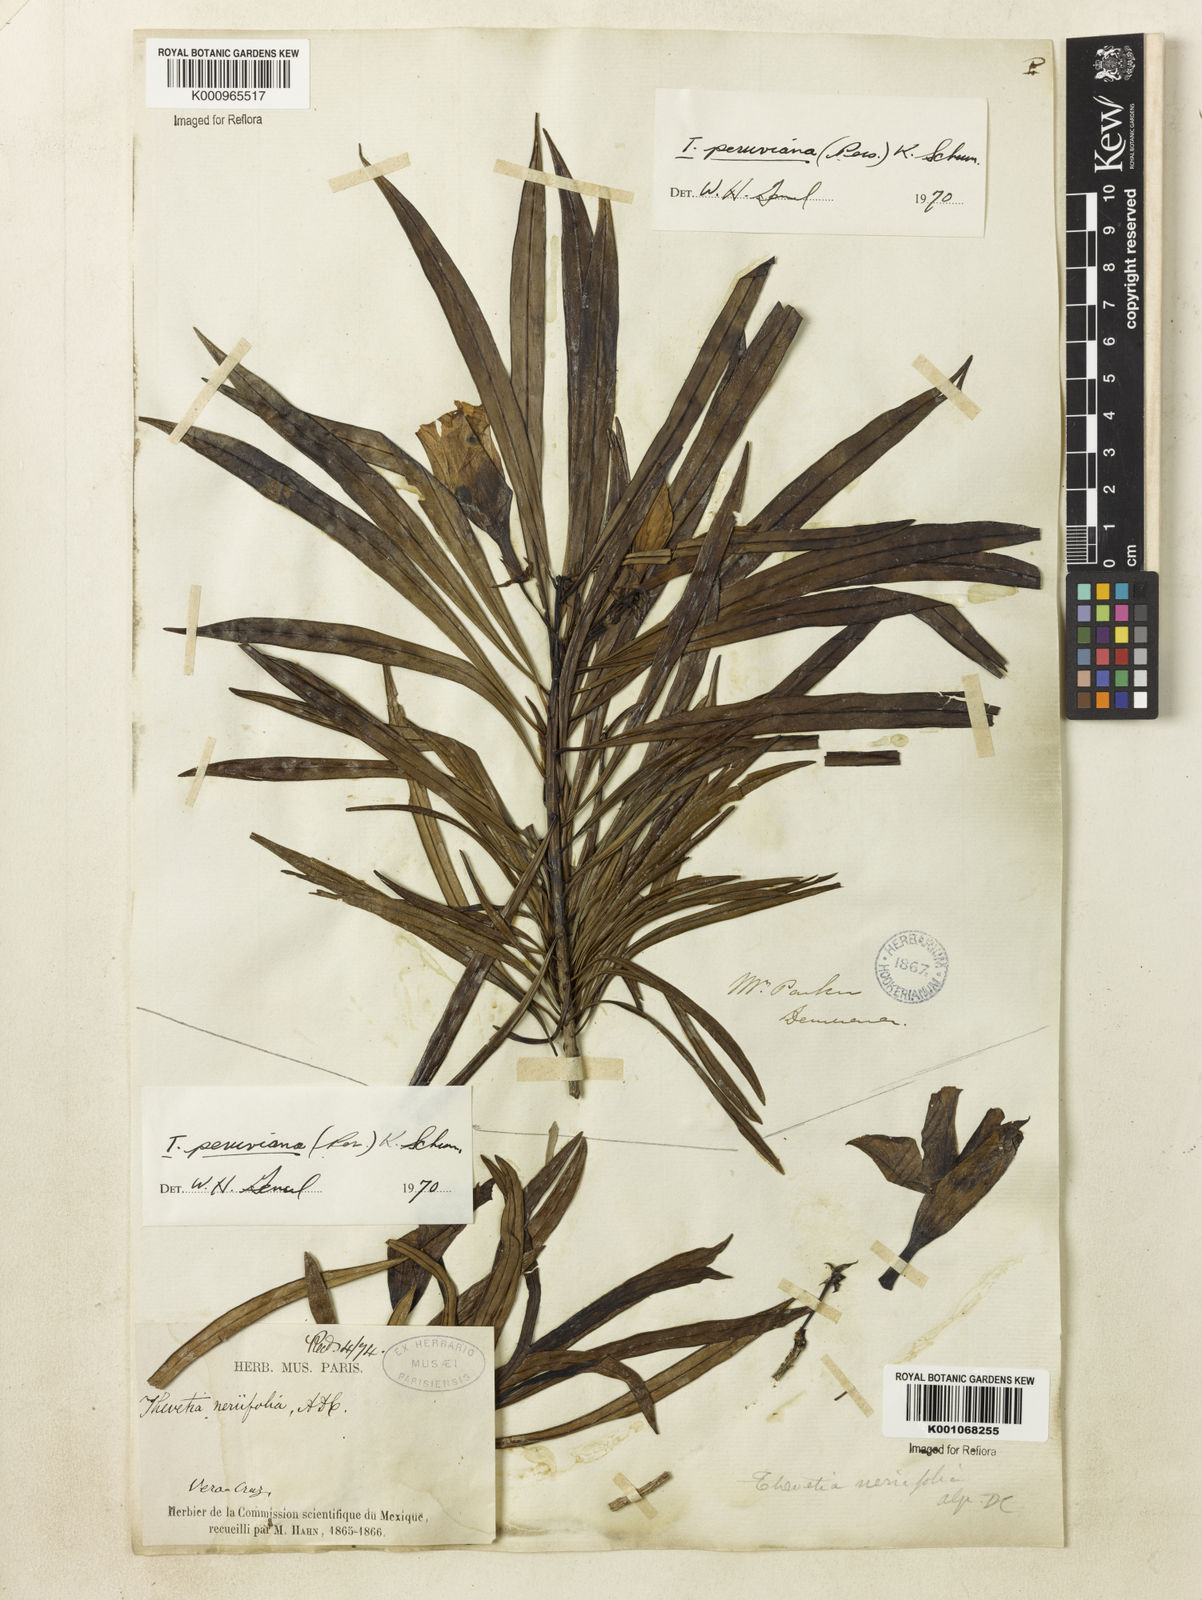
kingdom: Plantae
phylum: Tracheophyta
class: Magnoliopsida
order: Gentianales
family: Apocynaceae
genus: Cascabela
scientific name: Cascabela thevetia
